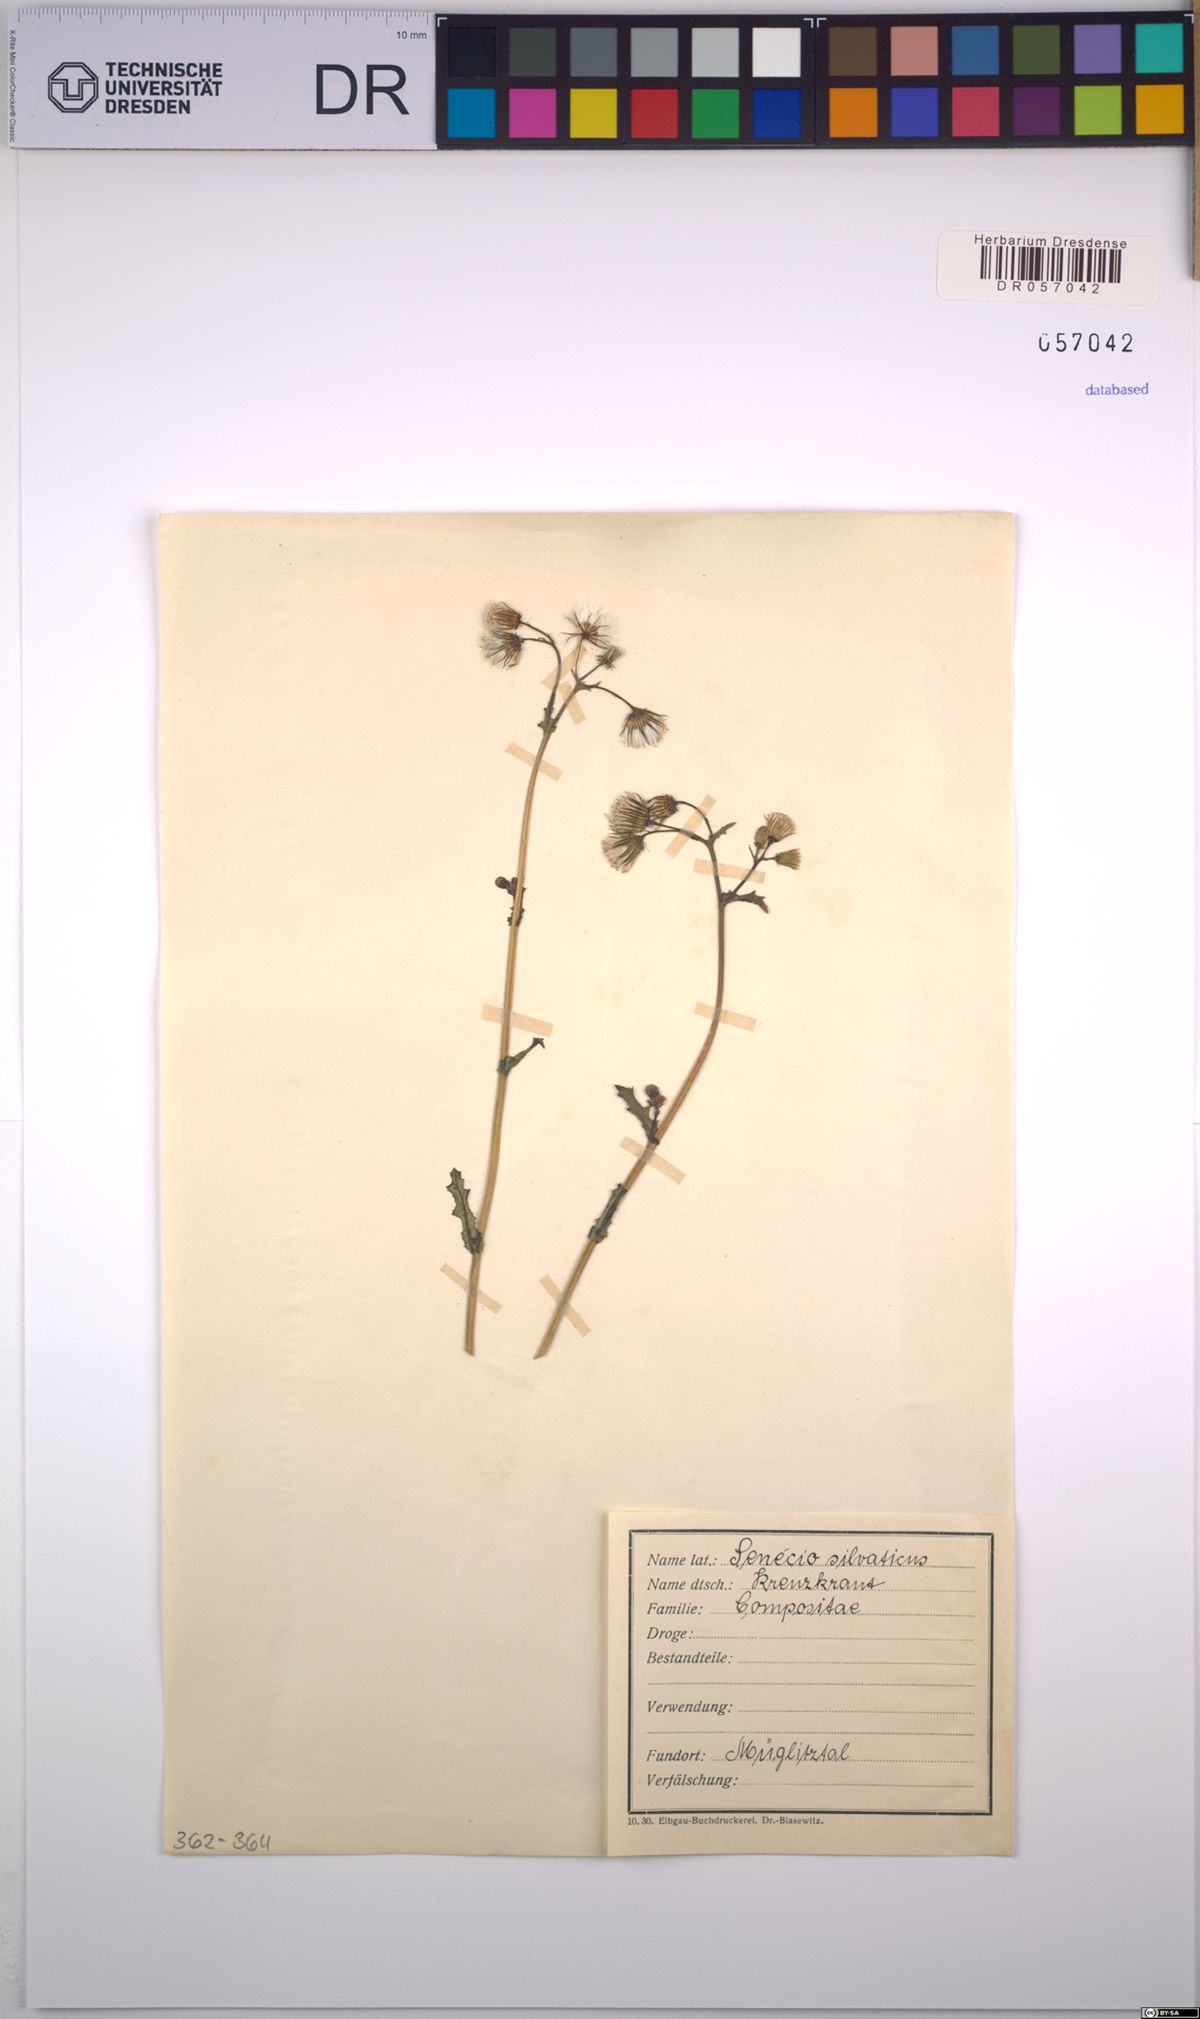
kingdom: Plantae
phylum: Tracheophyta
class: Magnoliopsida
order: Asterales
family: Asteraceae
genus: Senecio
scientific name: Senecio sylvaticus
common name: Woodland ragwort
